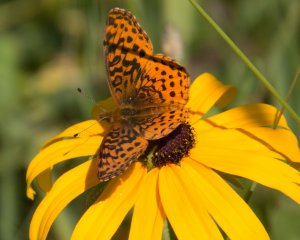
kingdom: Animalia
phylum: Arthropoda
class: Insecta
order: Lepidoptera
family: Nymphalidae
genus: Clossiana
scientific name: Clossiana toddi
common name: Meadow Fritillary
